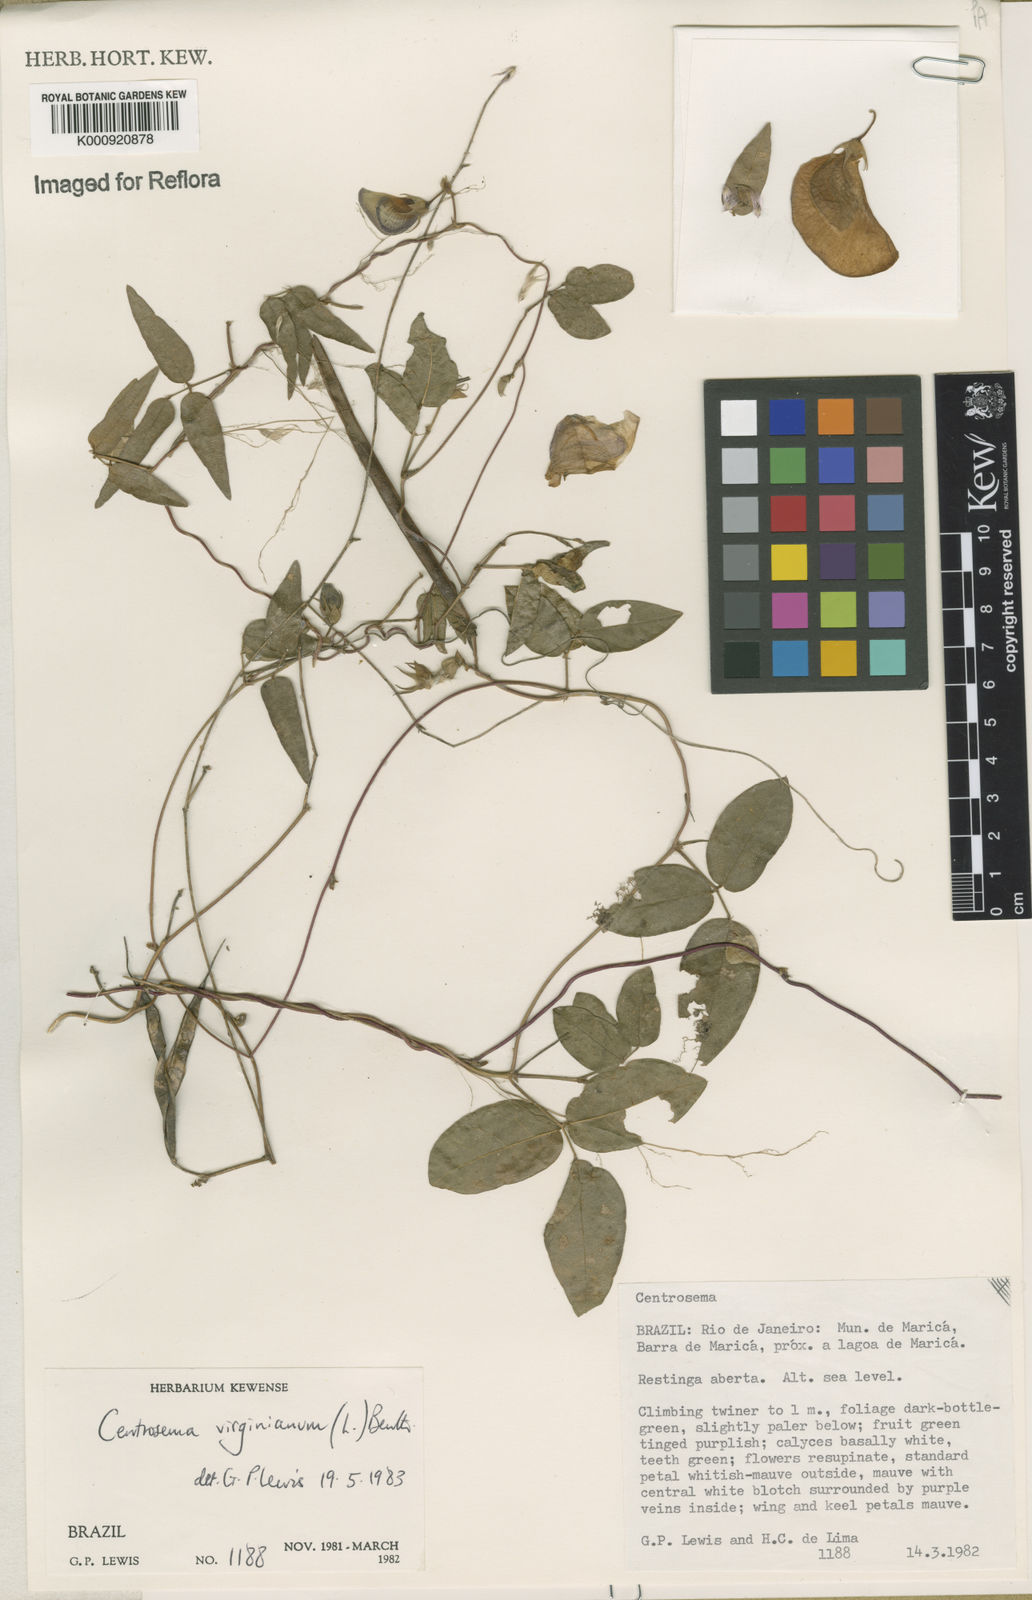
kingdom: Plantae
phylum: Tracheophyta
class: Magnoliopsida
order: Fabales
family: Fabaceae
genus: Centrosema
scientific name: Centrosema virginianum
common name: Butterfly-pea
